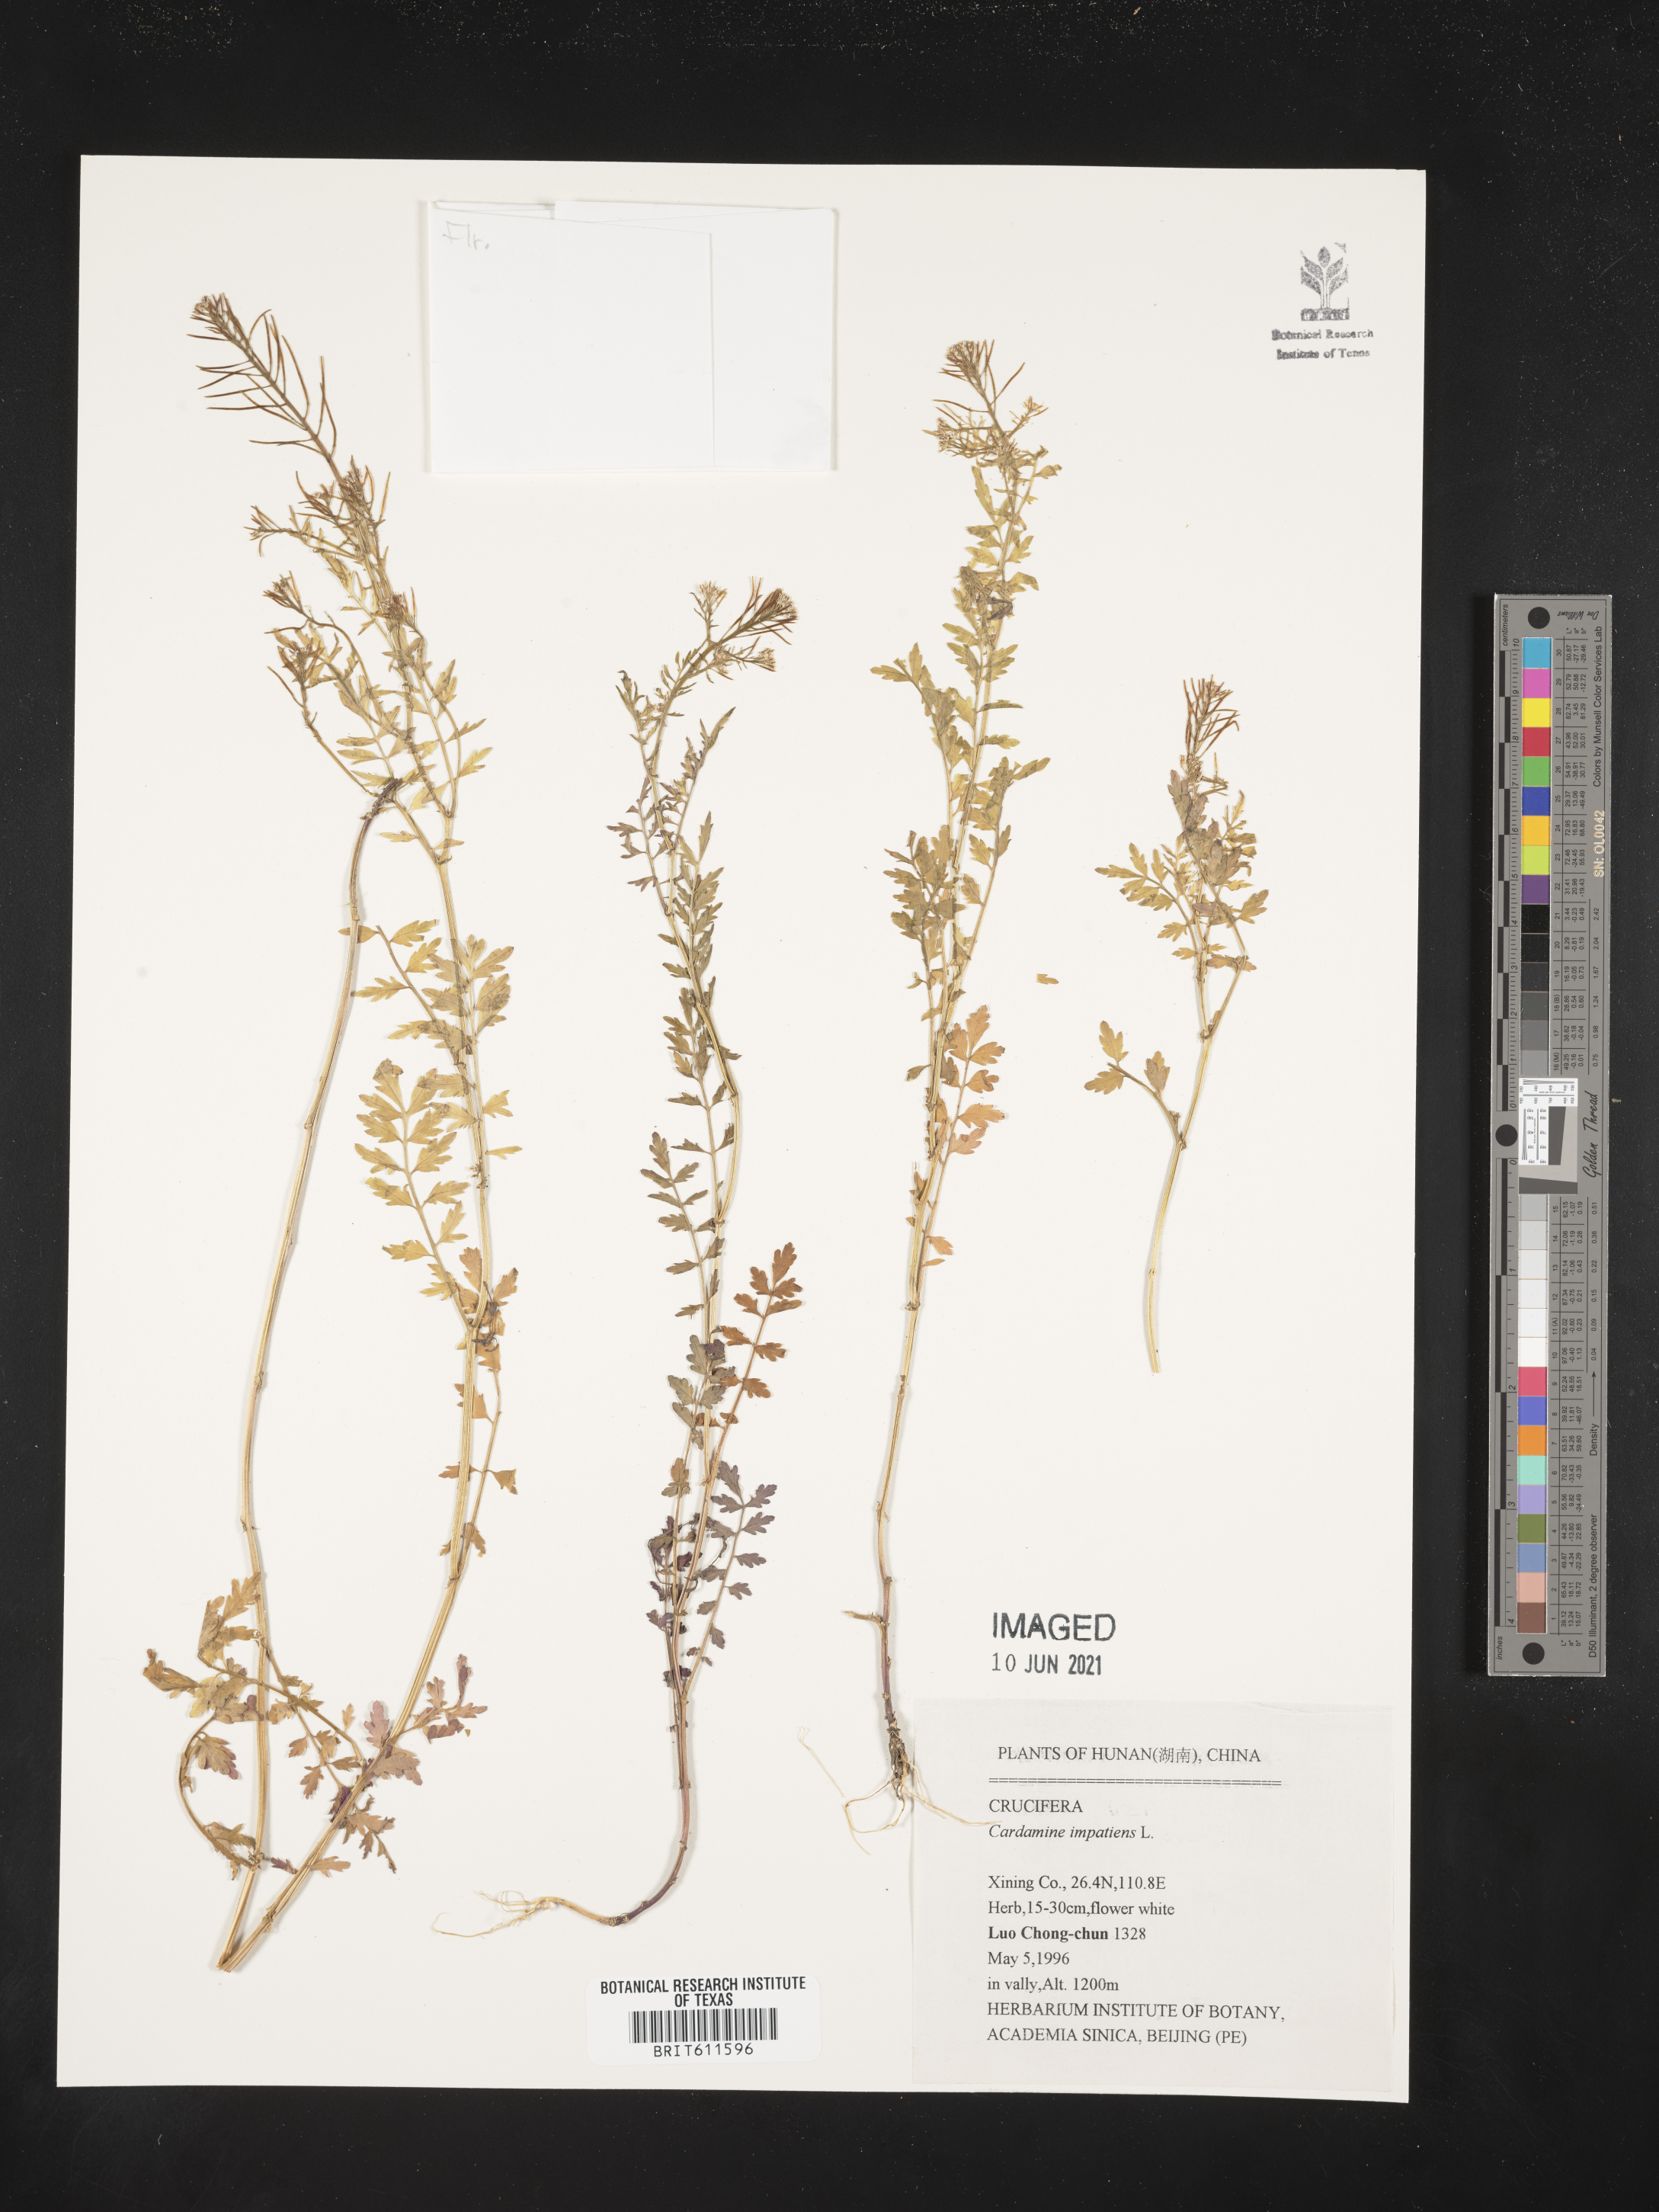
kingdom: Plantae
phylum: Tracheophyta
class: Magnoliopsida
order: Brassicales
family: Brassicaceae
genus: Cardamine
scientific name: Cardamine impatiens
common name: Narrow-leaved bitter-cress
